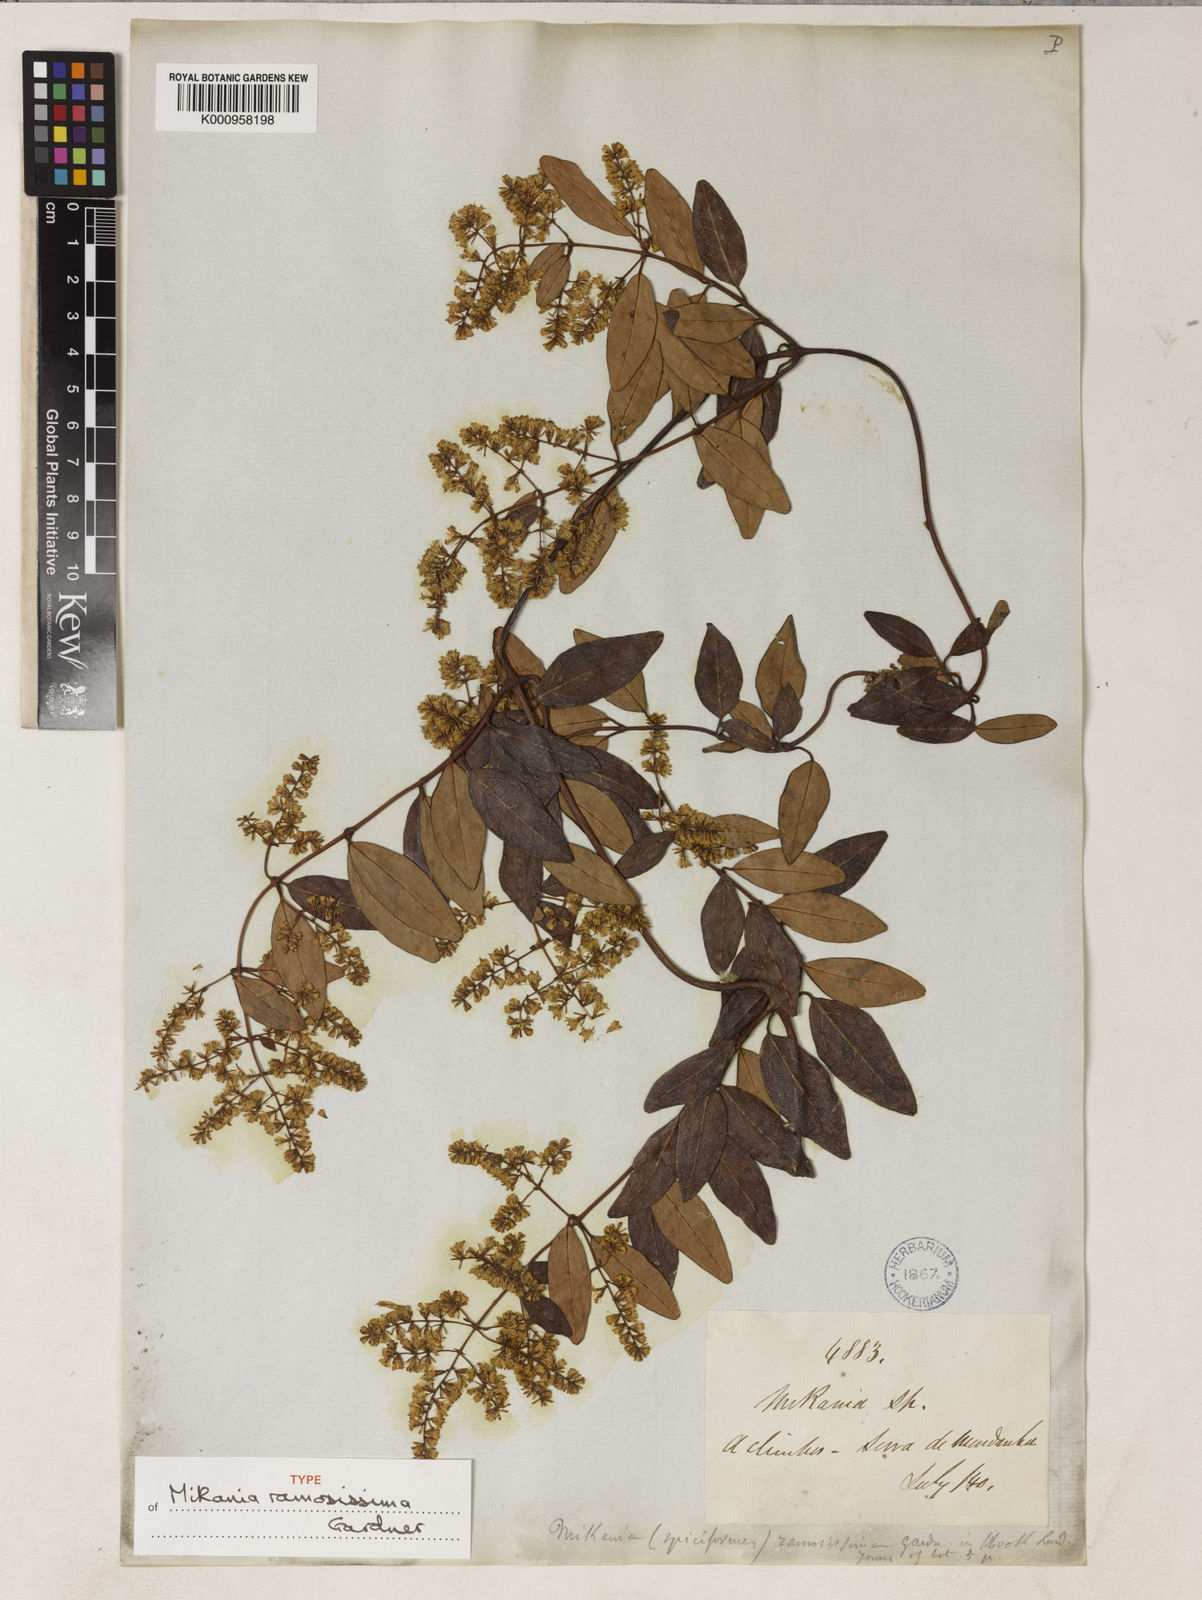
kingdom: Plantae
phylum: Tracheophyta
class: Magnoliopsida
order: Asterales
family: Asteraceae
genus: Mikania
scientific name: Mikania ramosissima
